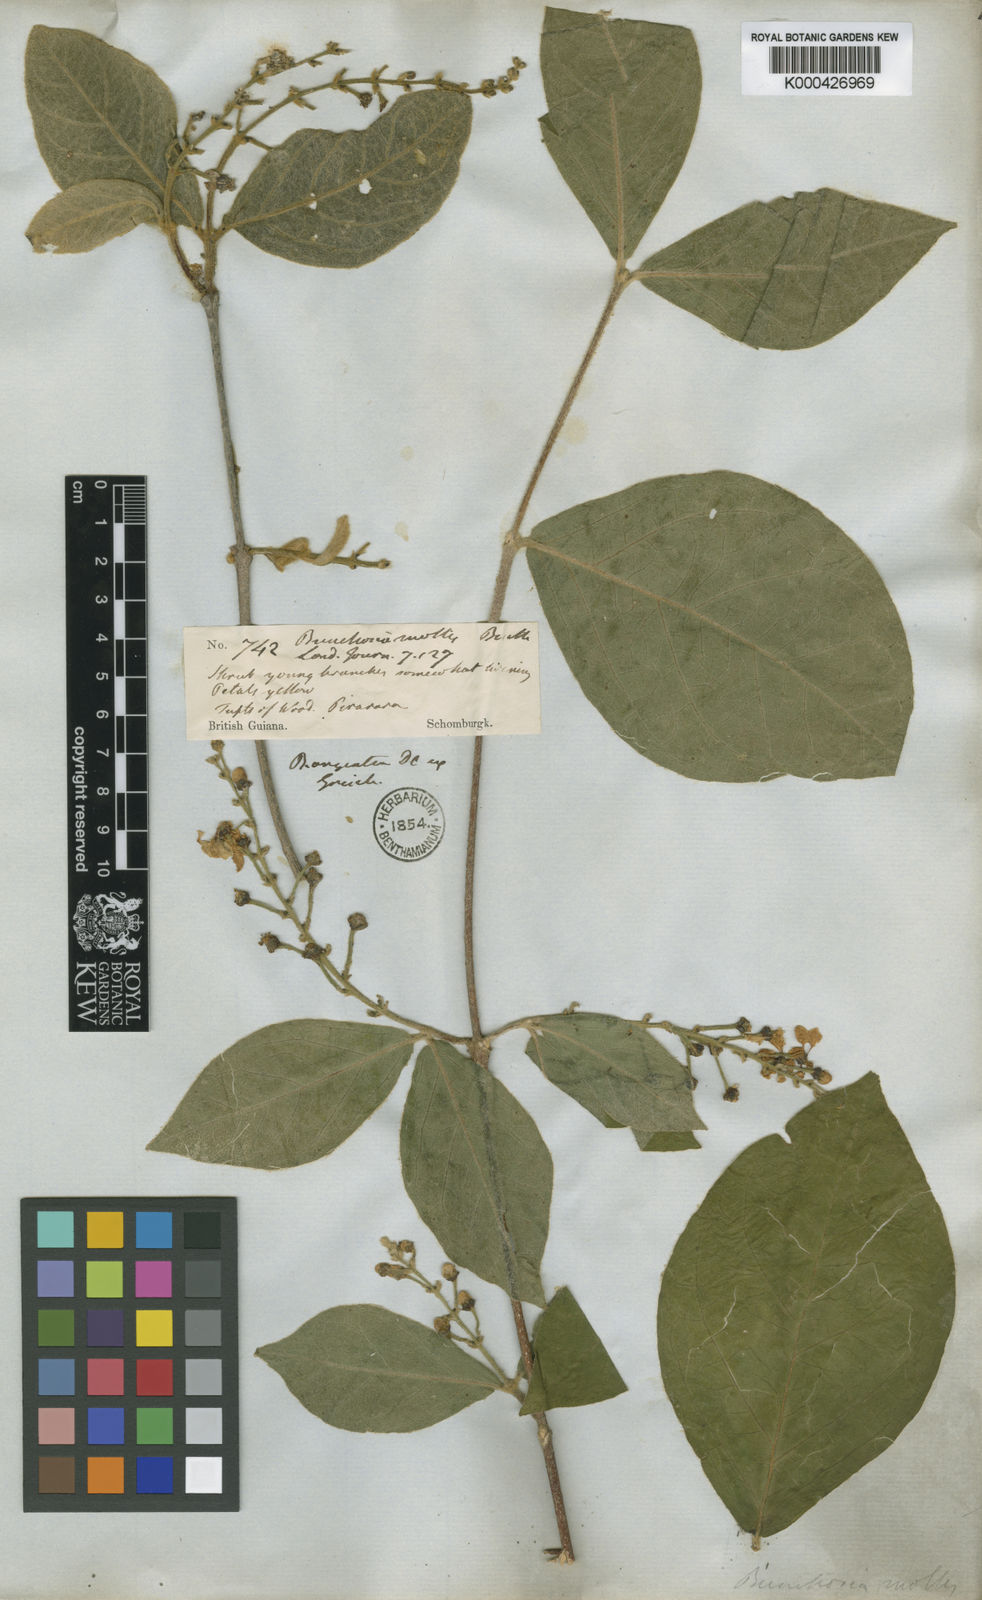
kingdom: Plantae
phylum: Tracheophyta
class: Magnoliopsida
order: Malpighiales
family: Malpighiaceae
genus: Bunchosia
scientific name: Bunchosia mollis
